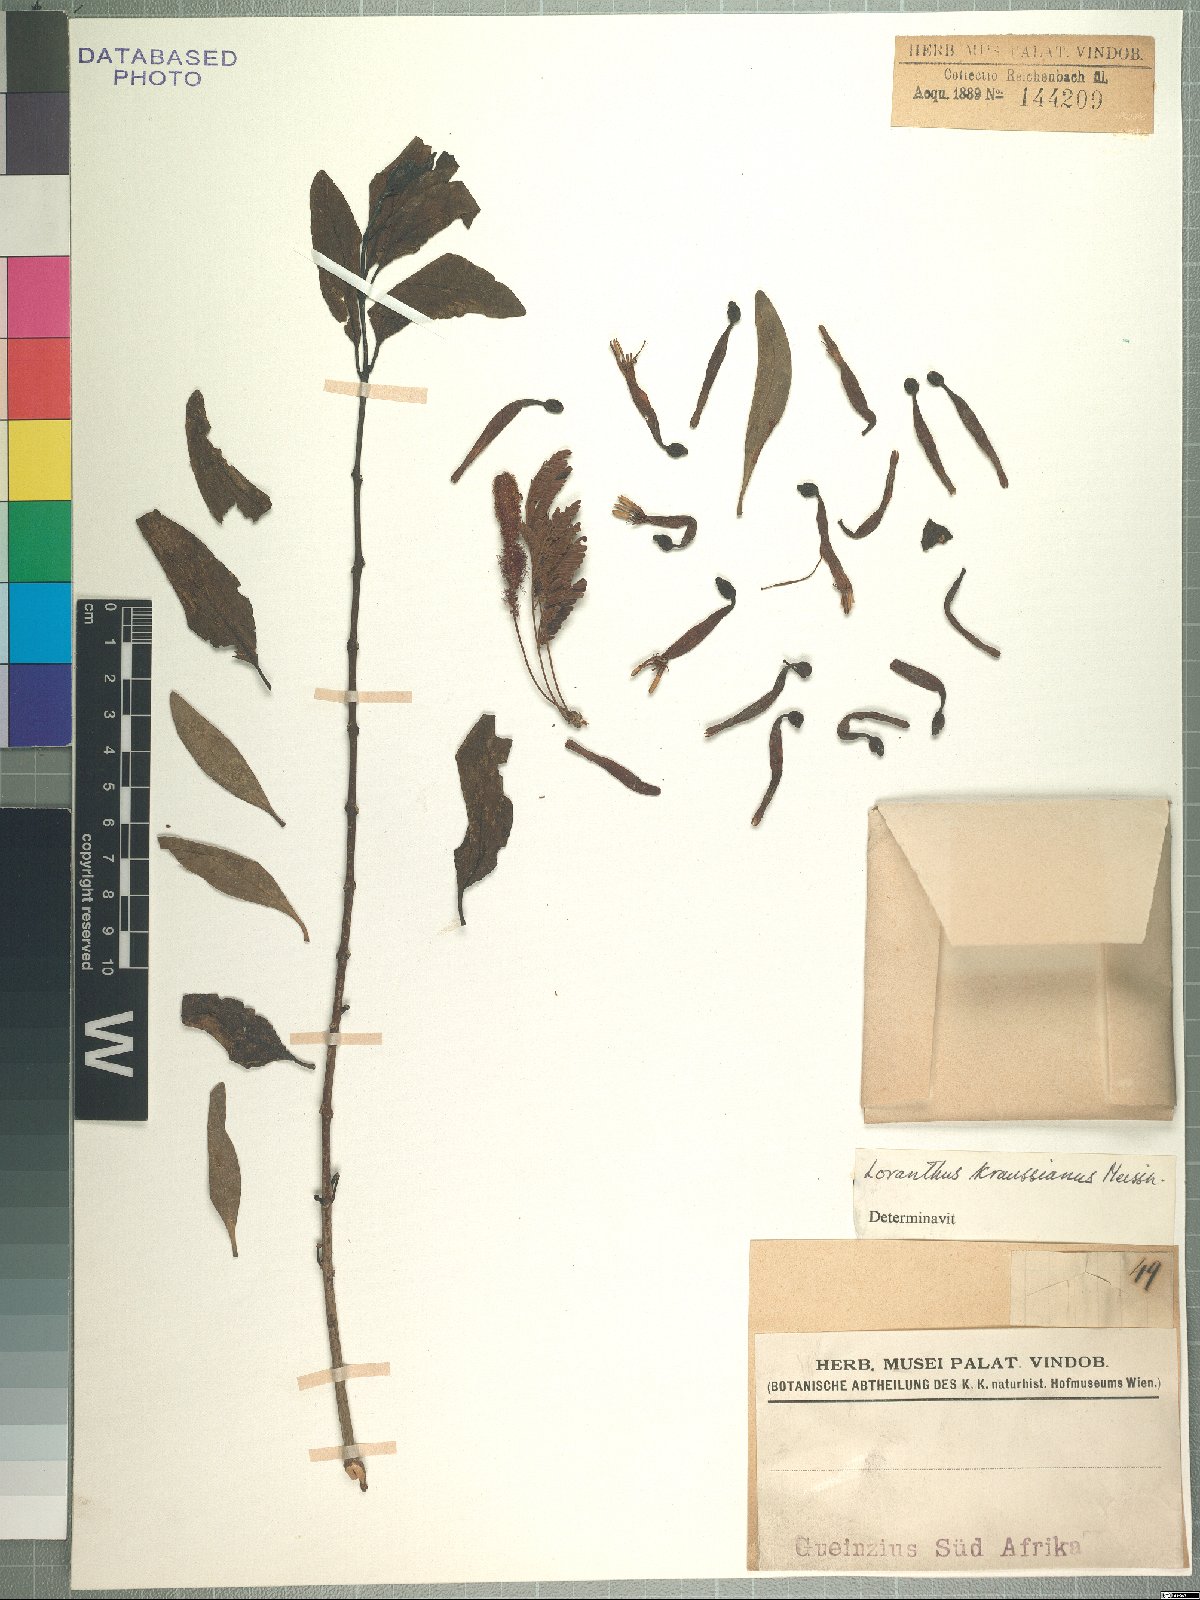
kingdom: Plantae
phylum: Tracheophyta
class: Magnoliopsida
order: Santalales
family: Loranthaceae
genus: Agelanthus
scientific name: Agelanthus kraussianus
